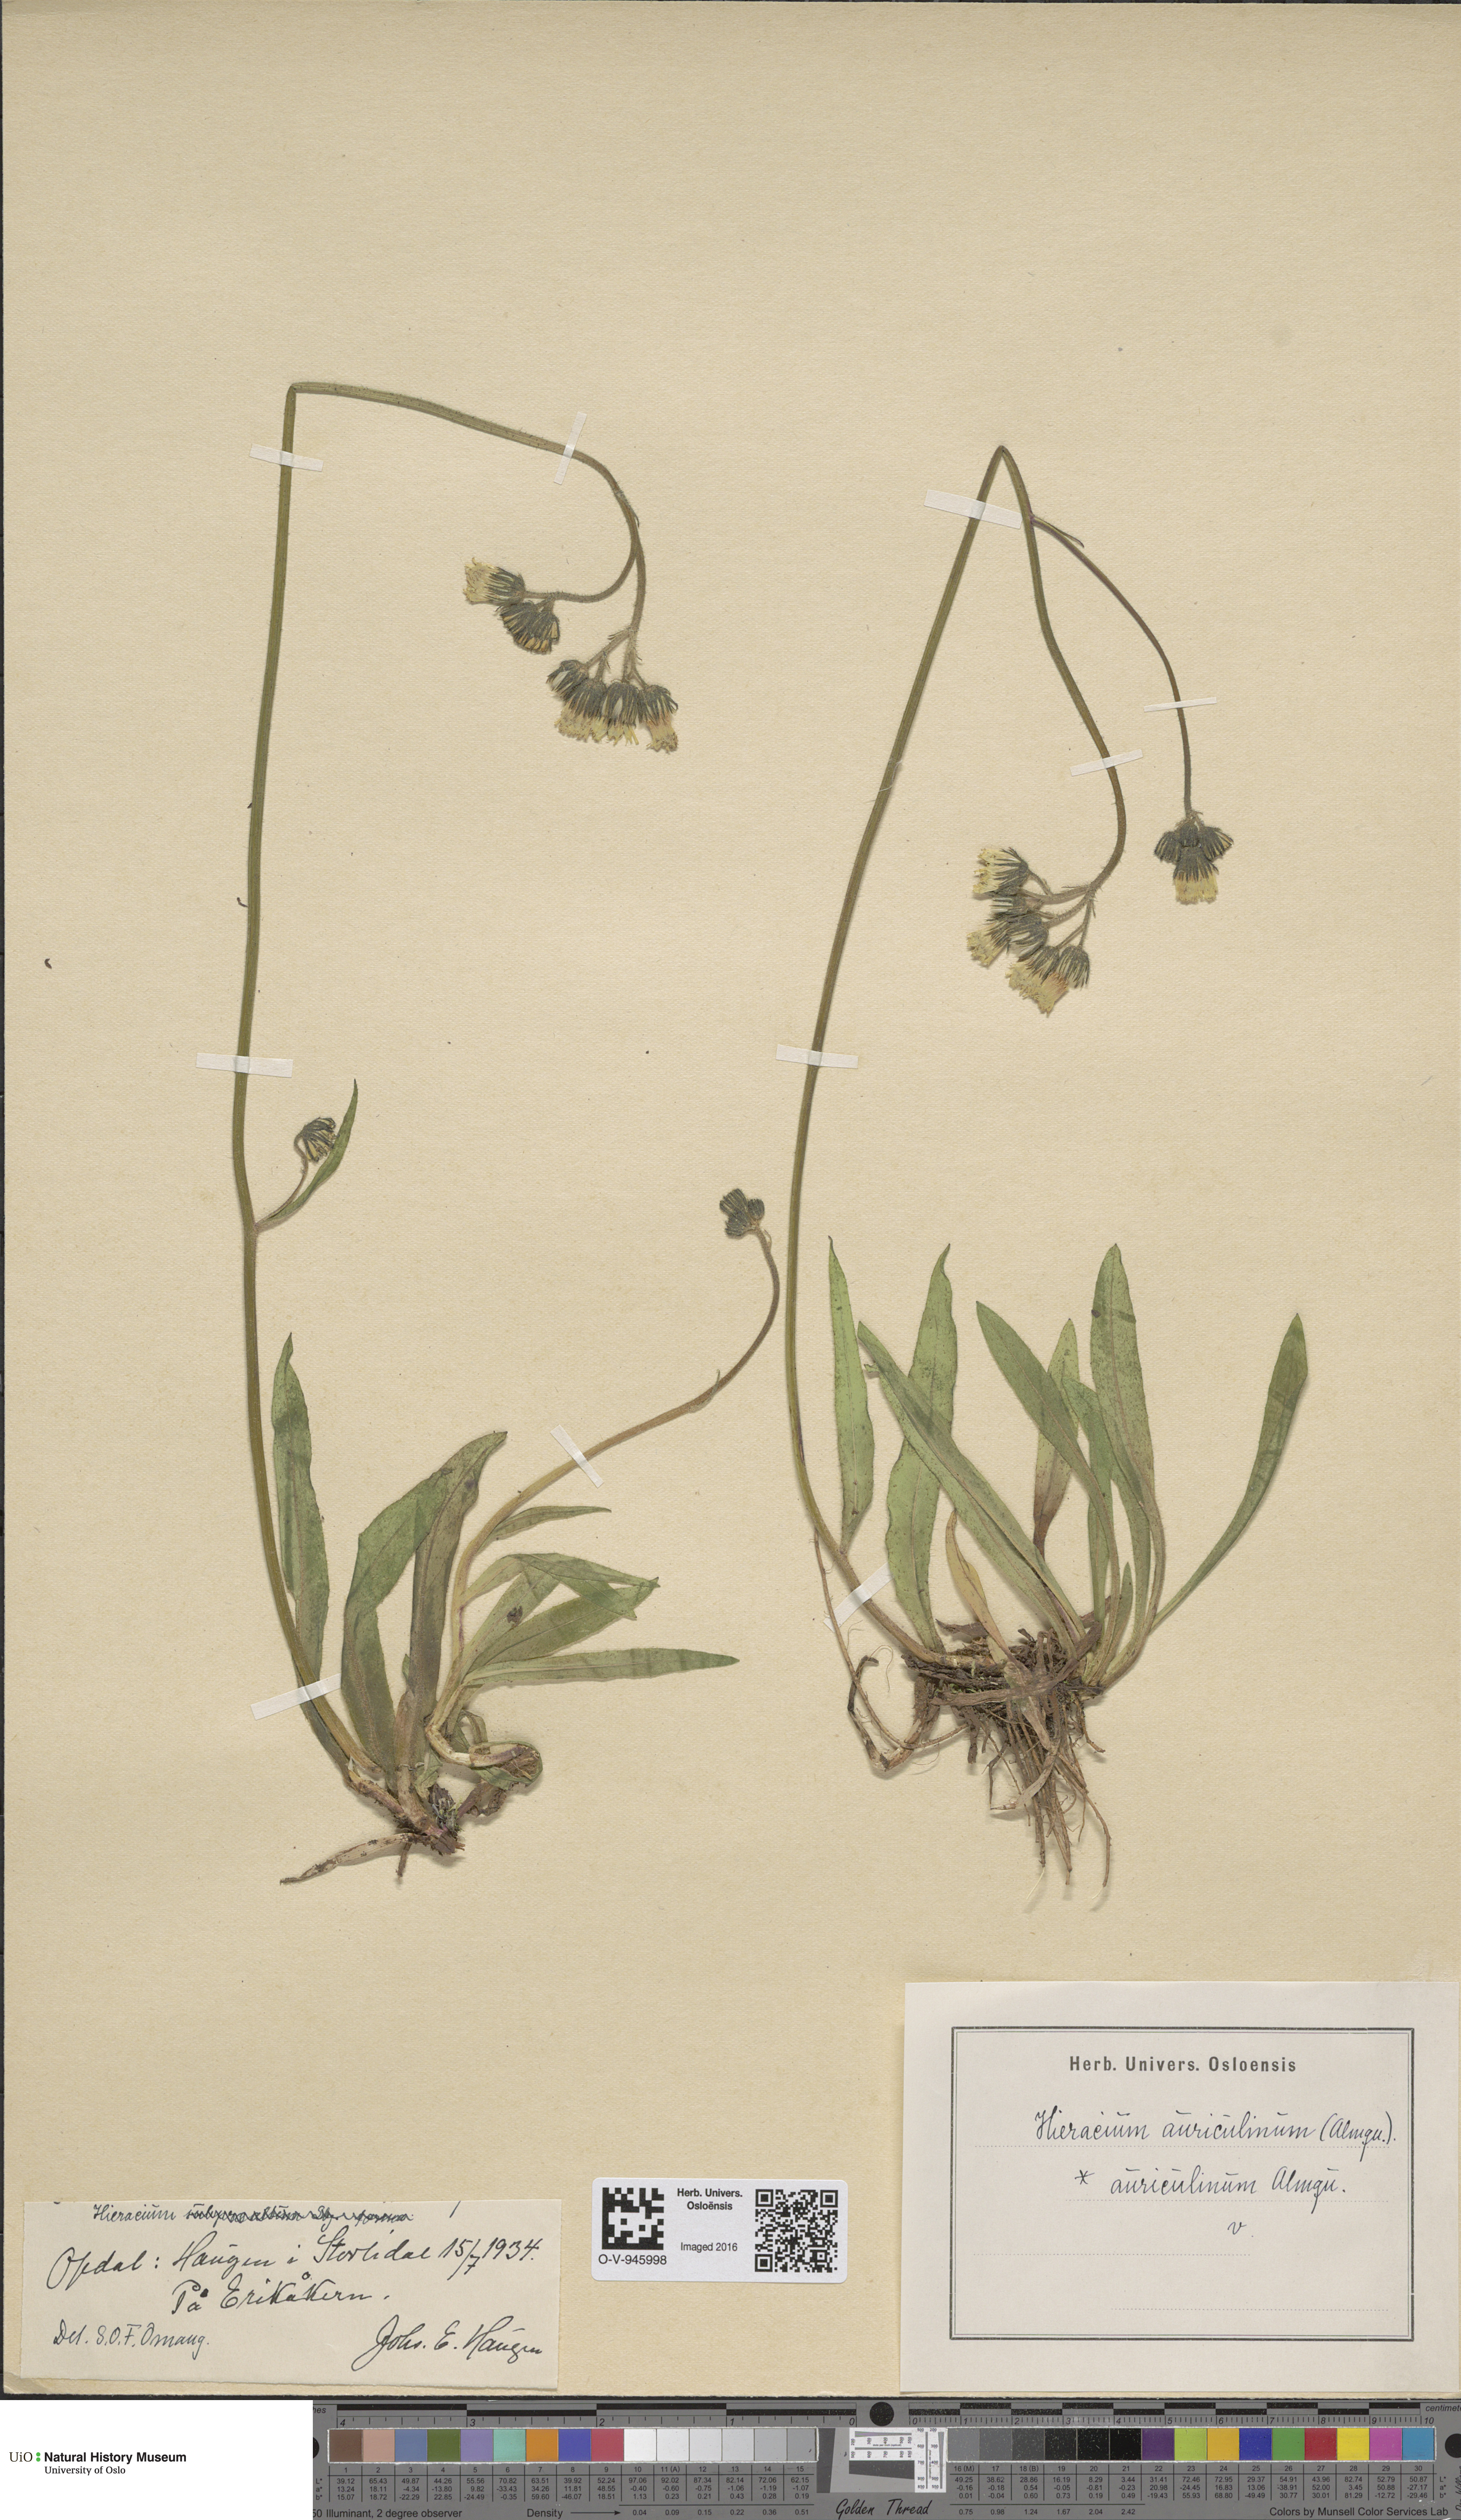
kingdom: Plantae
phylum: Tracheophyta
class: Magnoliopsida
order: Asterales
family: Asteraceae
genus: Pilosella
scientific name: Pilosella dubia
